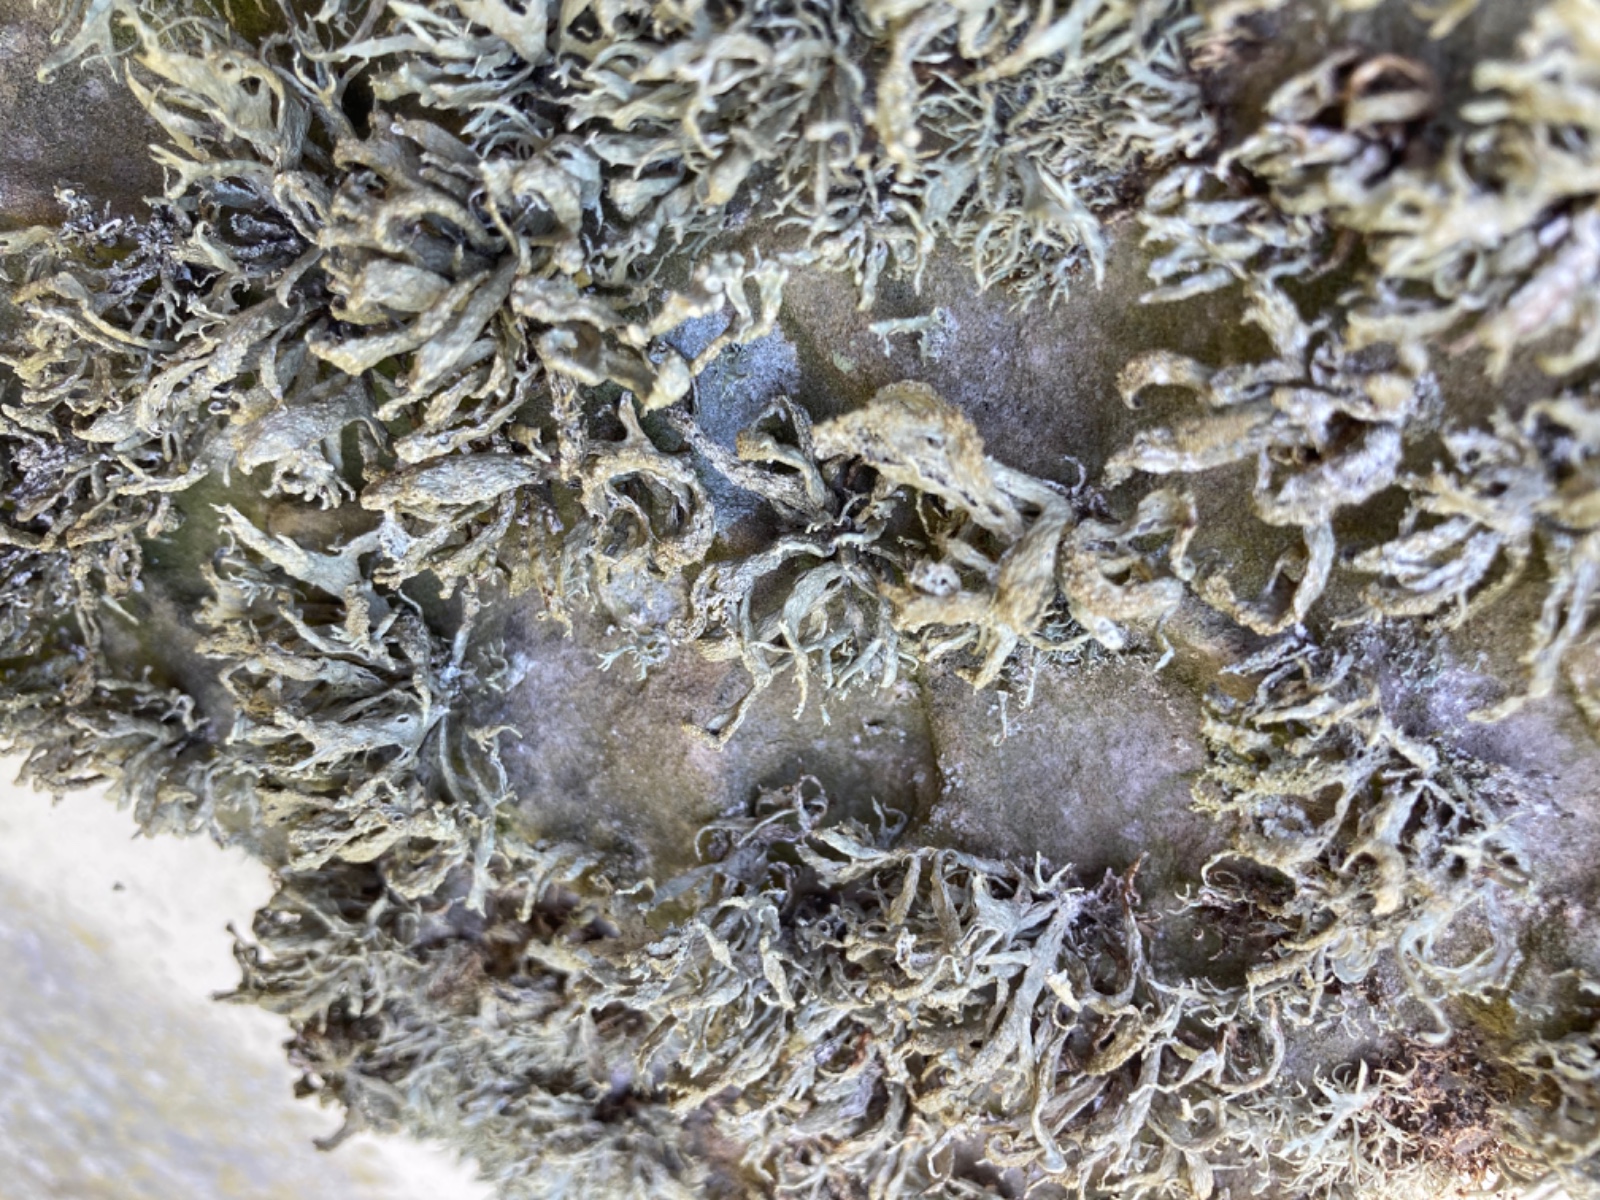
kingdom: Fungi
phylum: Ascomycota
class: Lecanoromycetes
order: Lecanorales
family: Ramalinaceae
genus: Ramalina
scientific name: Ramalina siliquosa
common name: klippe-grenlav
